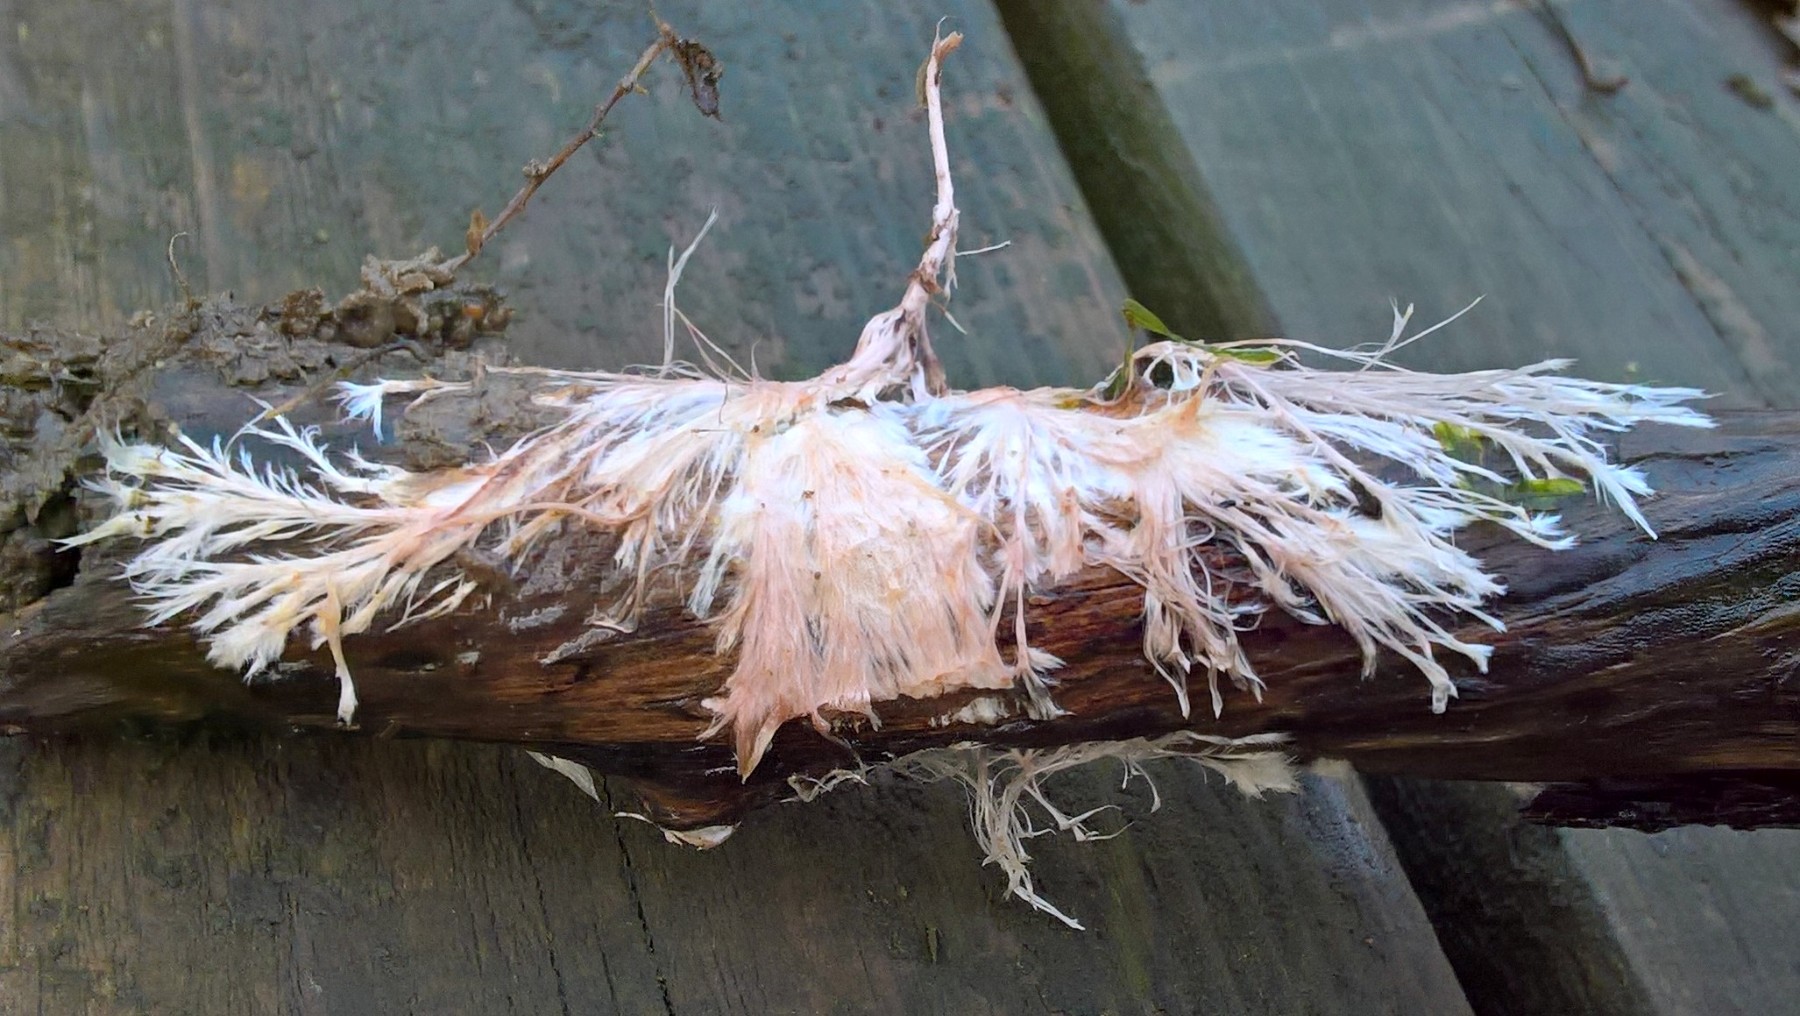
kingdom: Fungi
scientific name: Fungi
